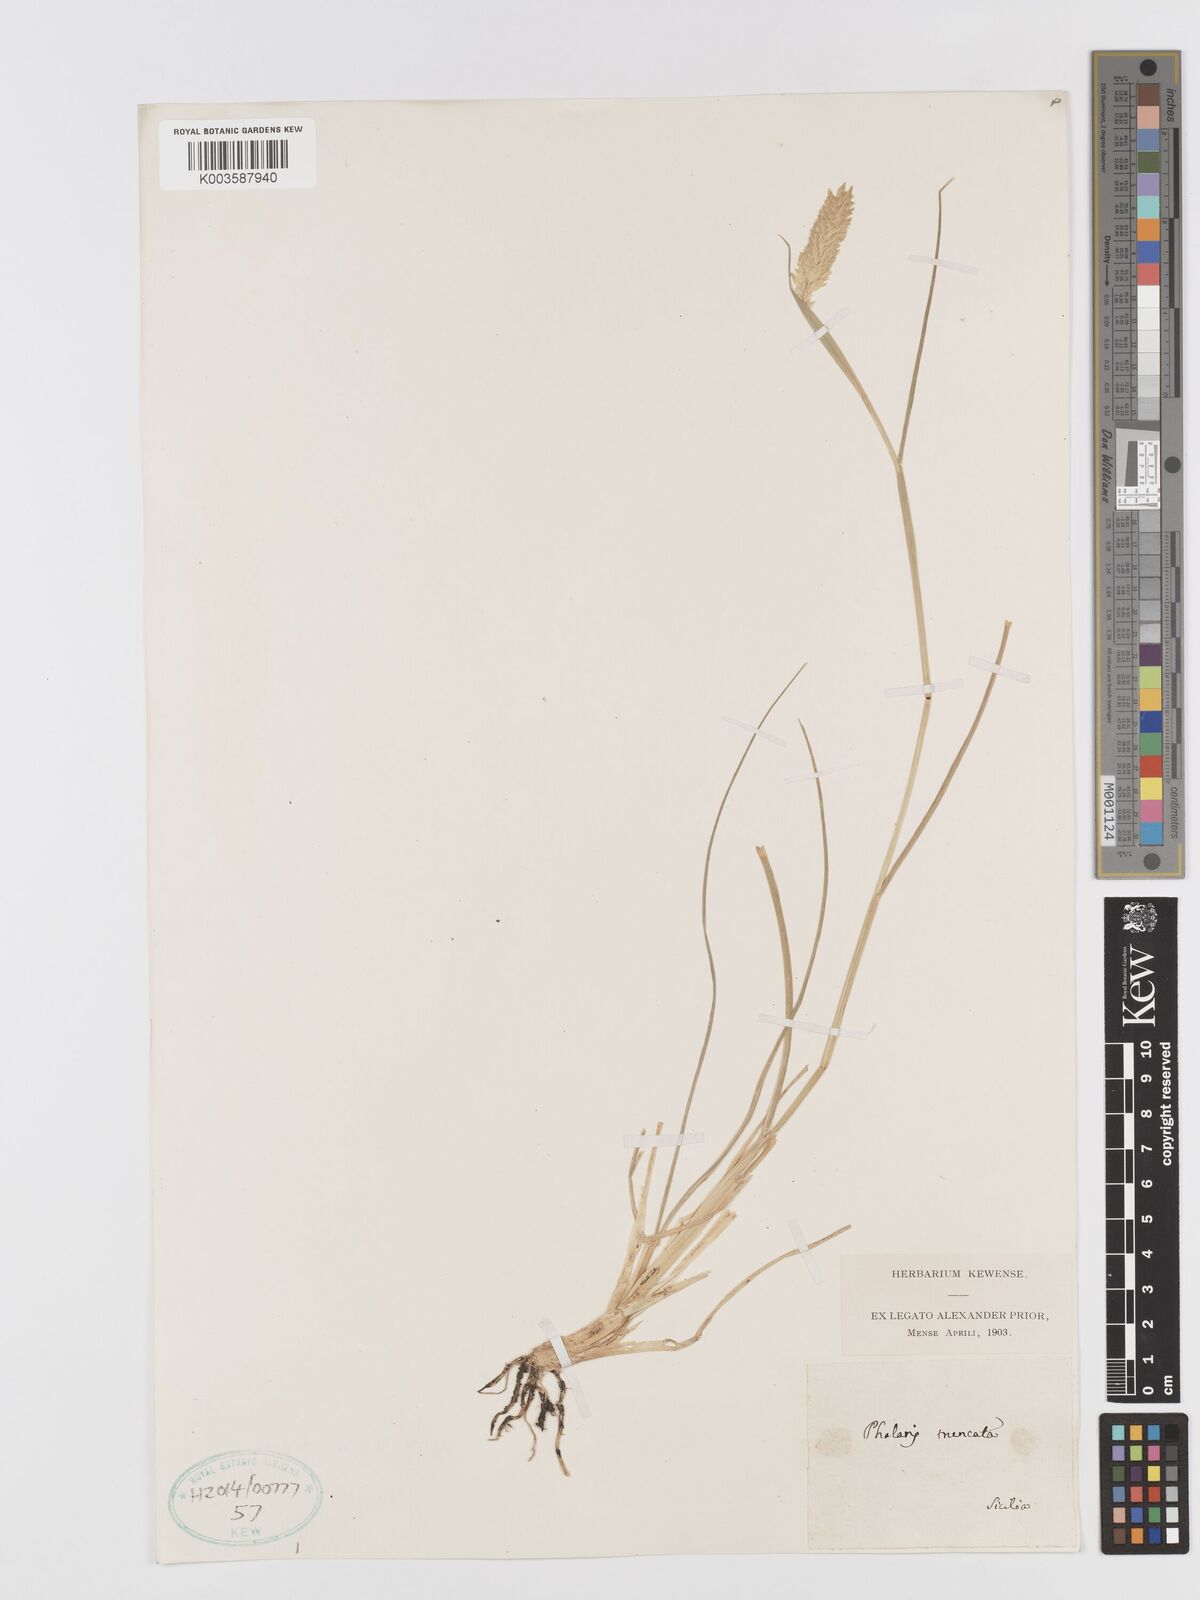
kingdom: Plantae
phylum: Tracheophyta
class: Liliopsida
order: Poales
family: Poaceae
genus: Phalaris
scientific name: Phalaris truncata
